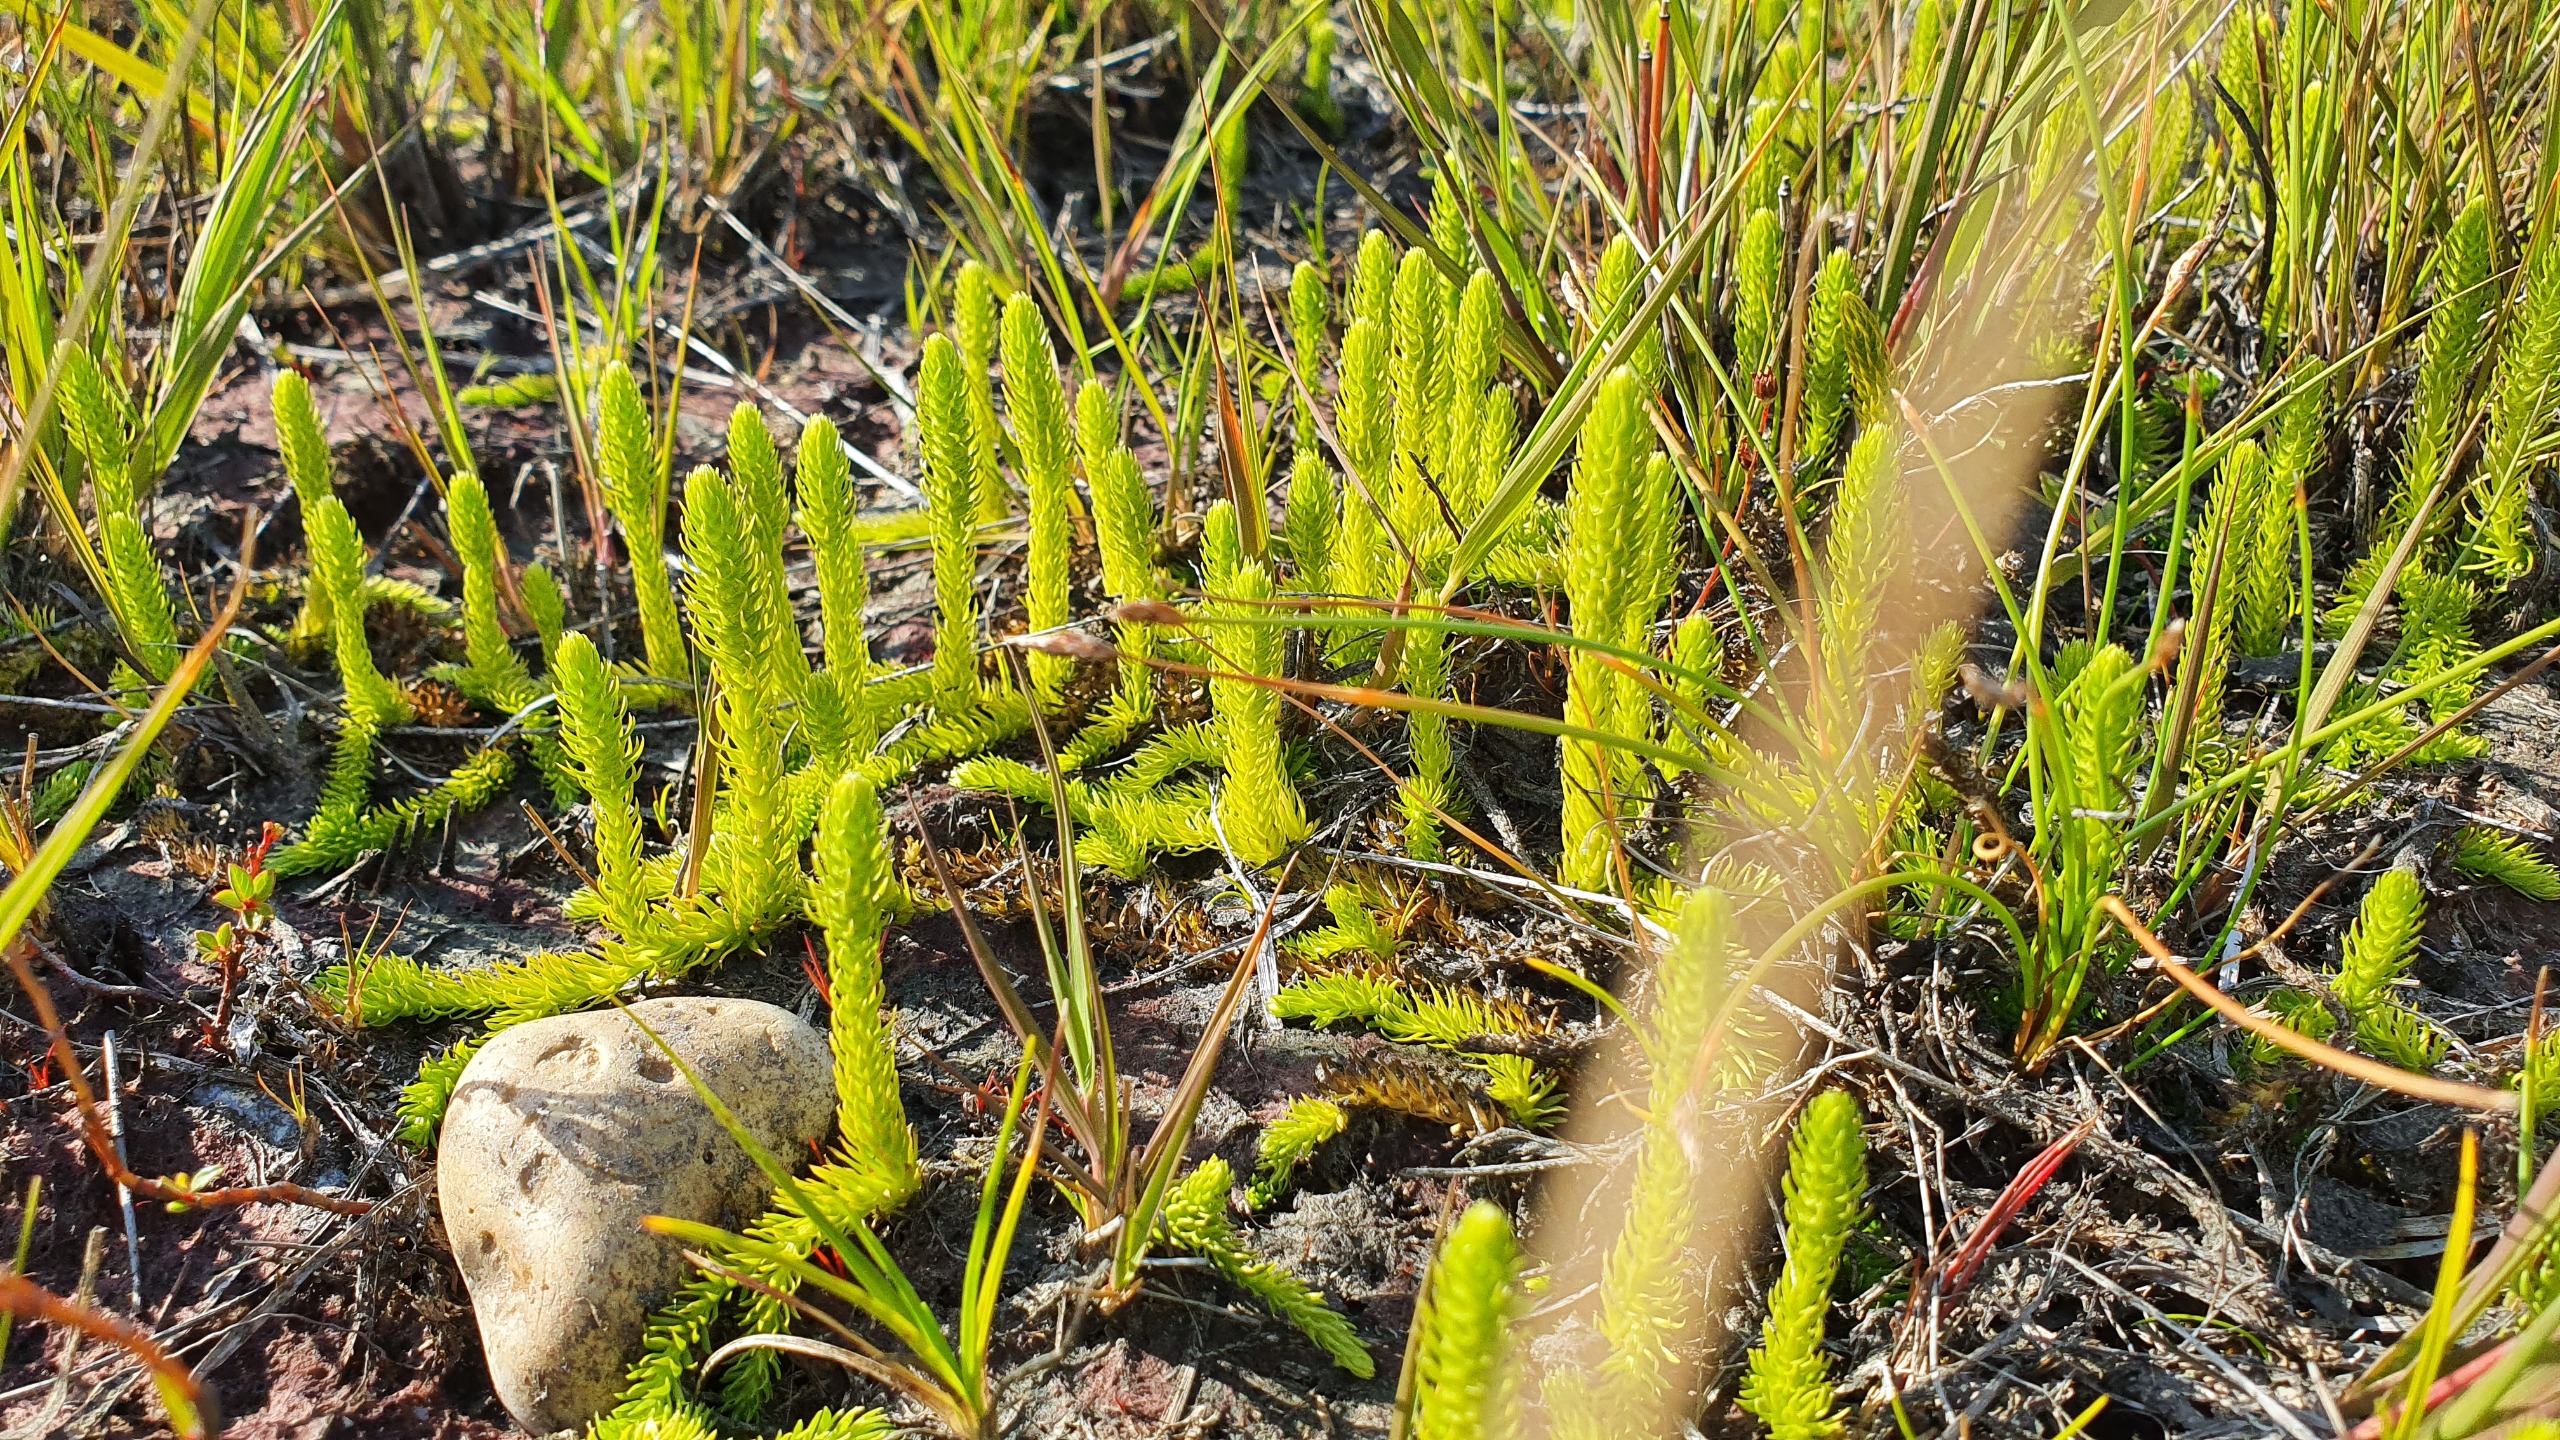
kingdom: Plantae
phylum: Tracheophyta
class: Lycopodiopsida
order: Lycopodiales
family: Lycopodiaceae
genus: Lycopodiella
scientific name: Lycopodiella inundata
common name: Liden ulvefod
